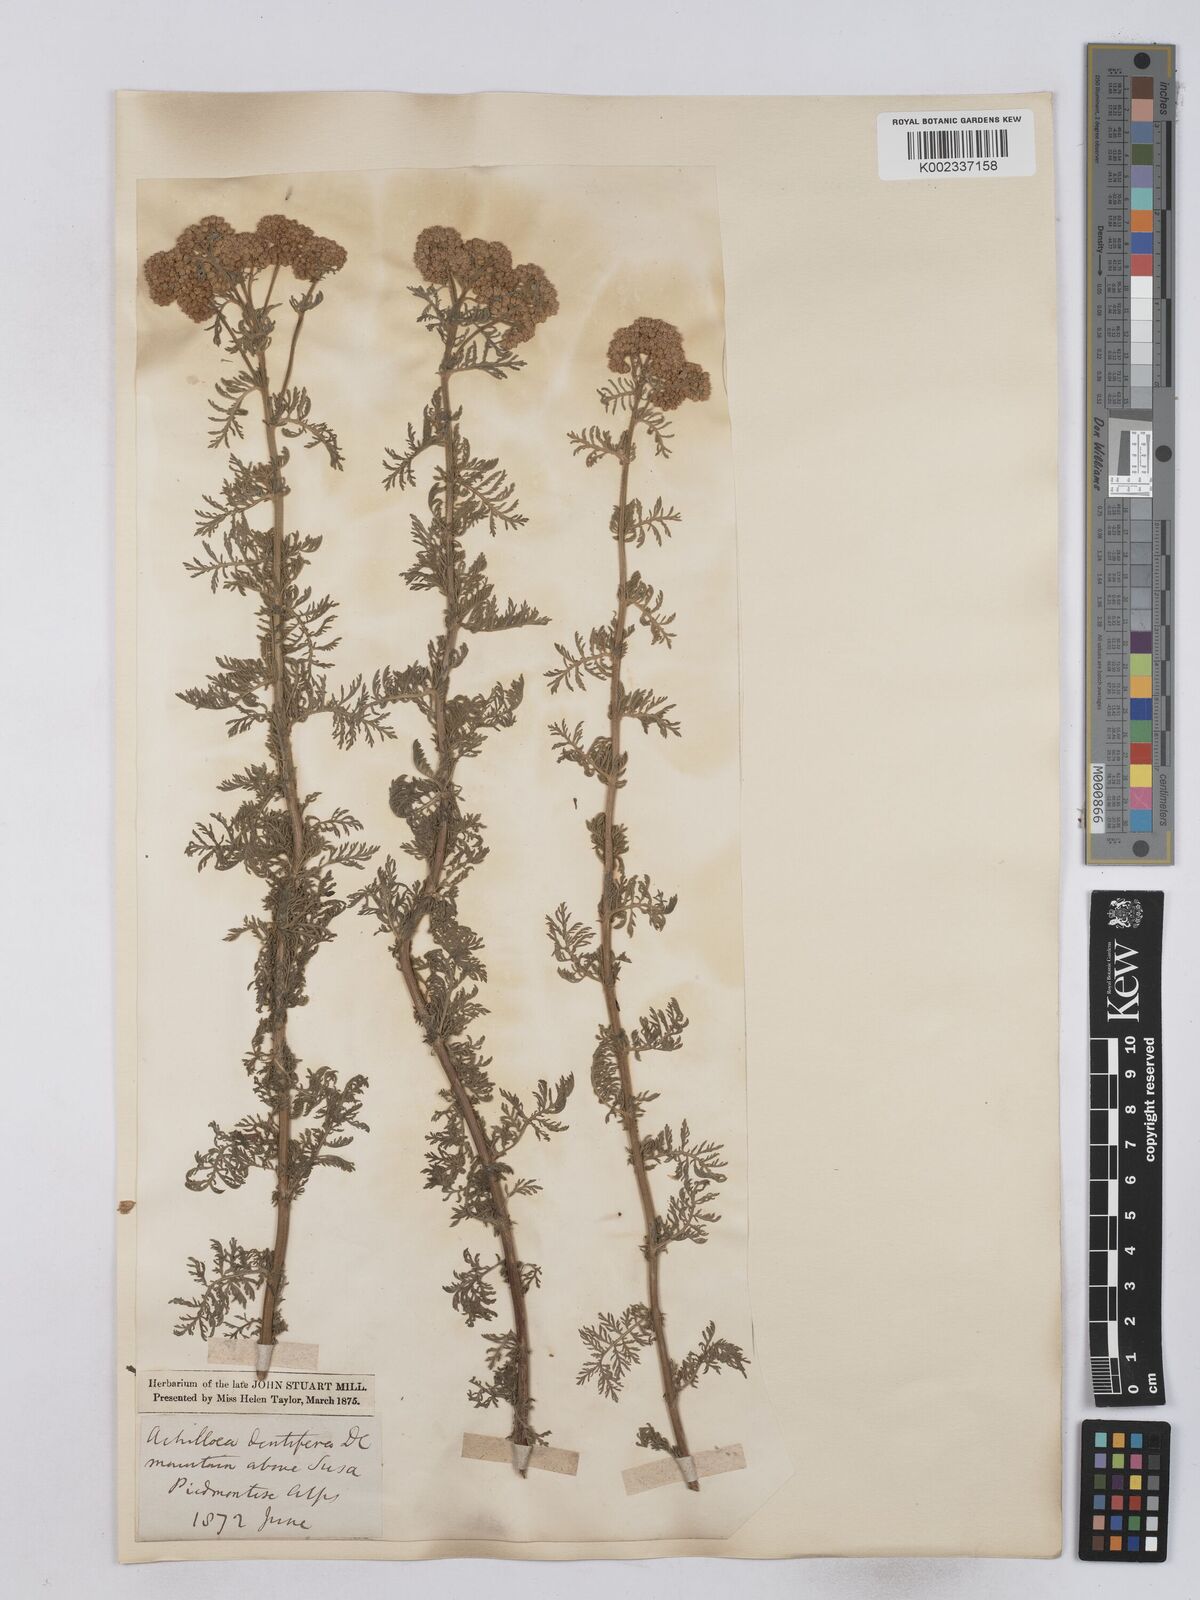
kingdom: Plantae
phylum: Tracheophyta
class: Magnoliopsida
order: Asterales
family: Asteraceae
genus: Achillea
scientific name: Achillea ligustica
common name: Southern yarrow
